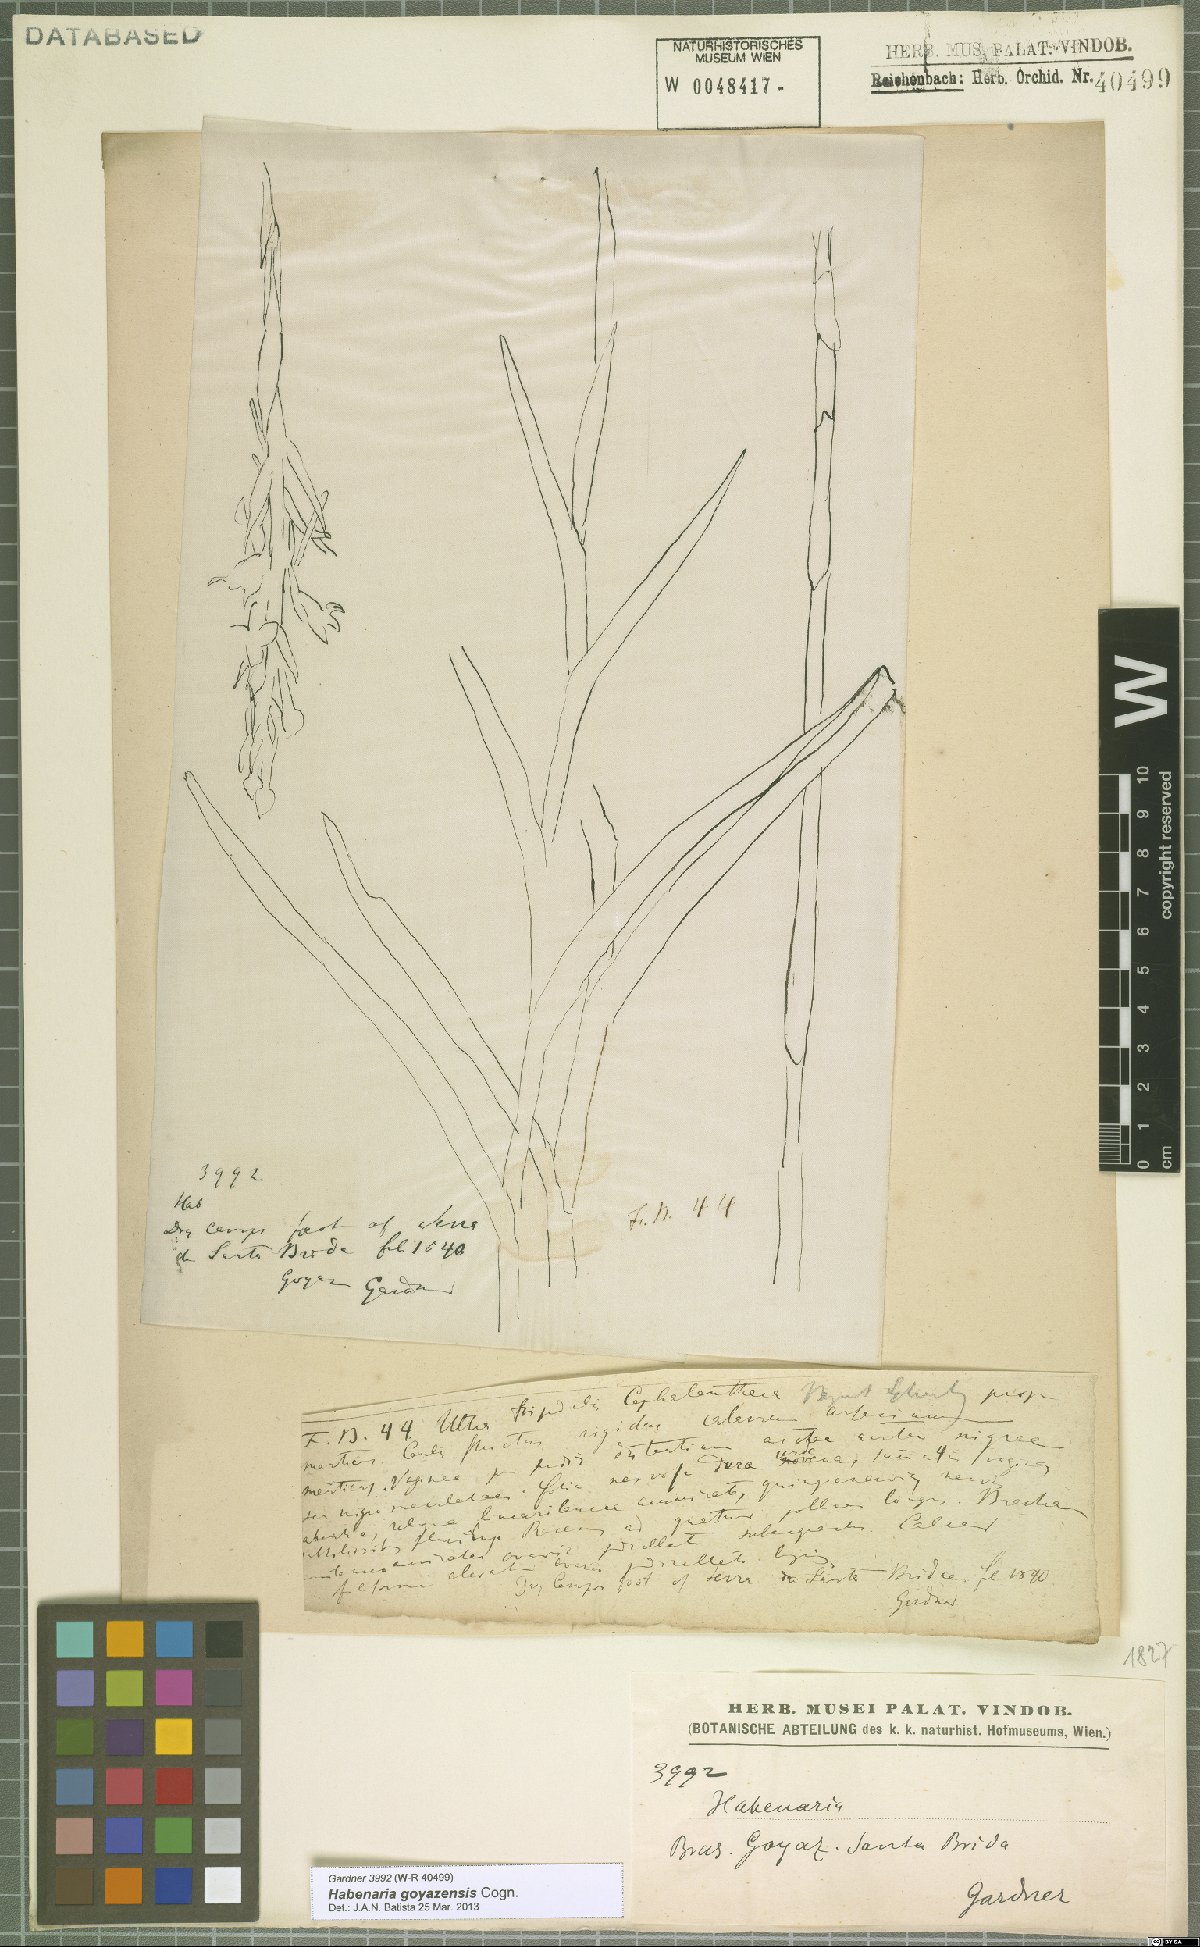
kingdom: Plantae
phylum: Tracheophyta
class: Liliopsida
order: Asparagales
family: Orchidaceae
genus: Habenaria
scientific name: Habenaria goyazensis
